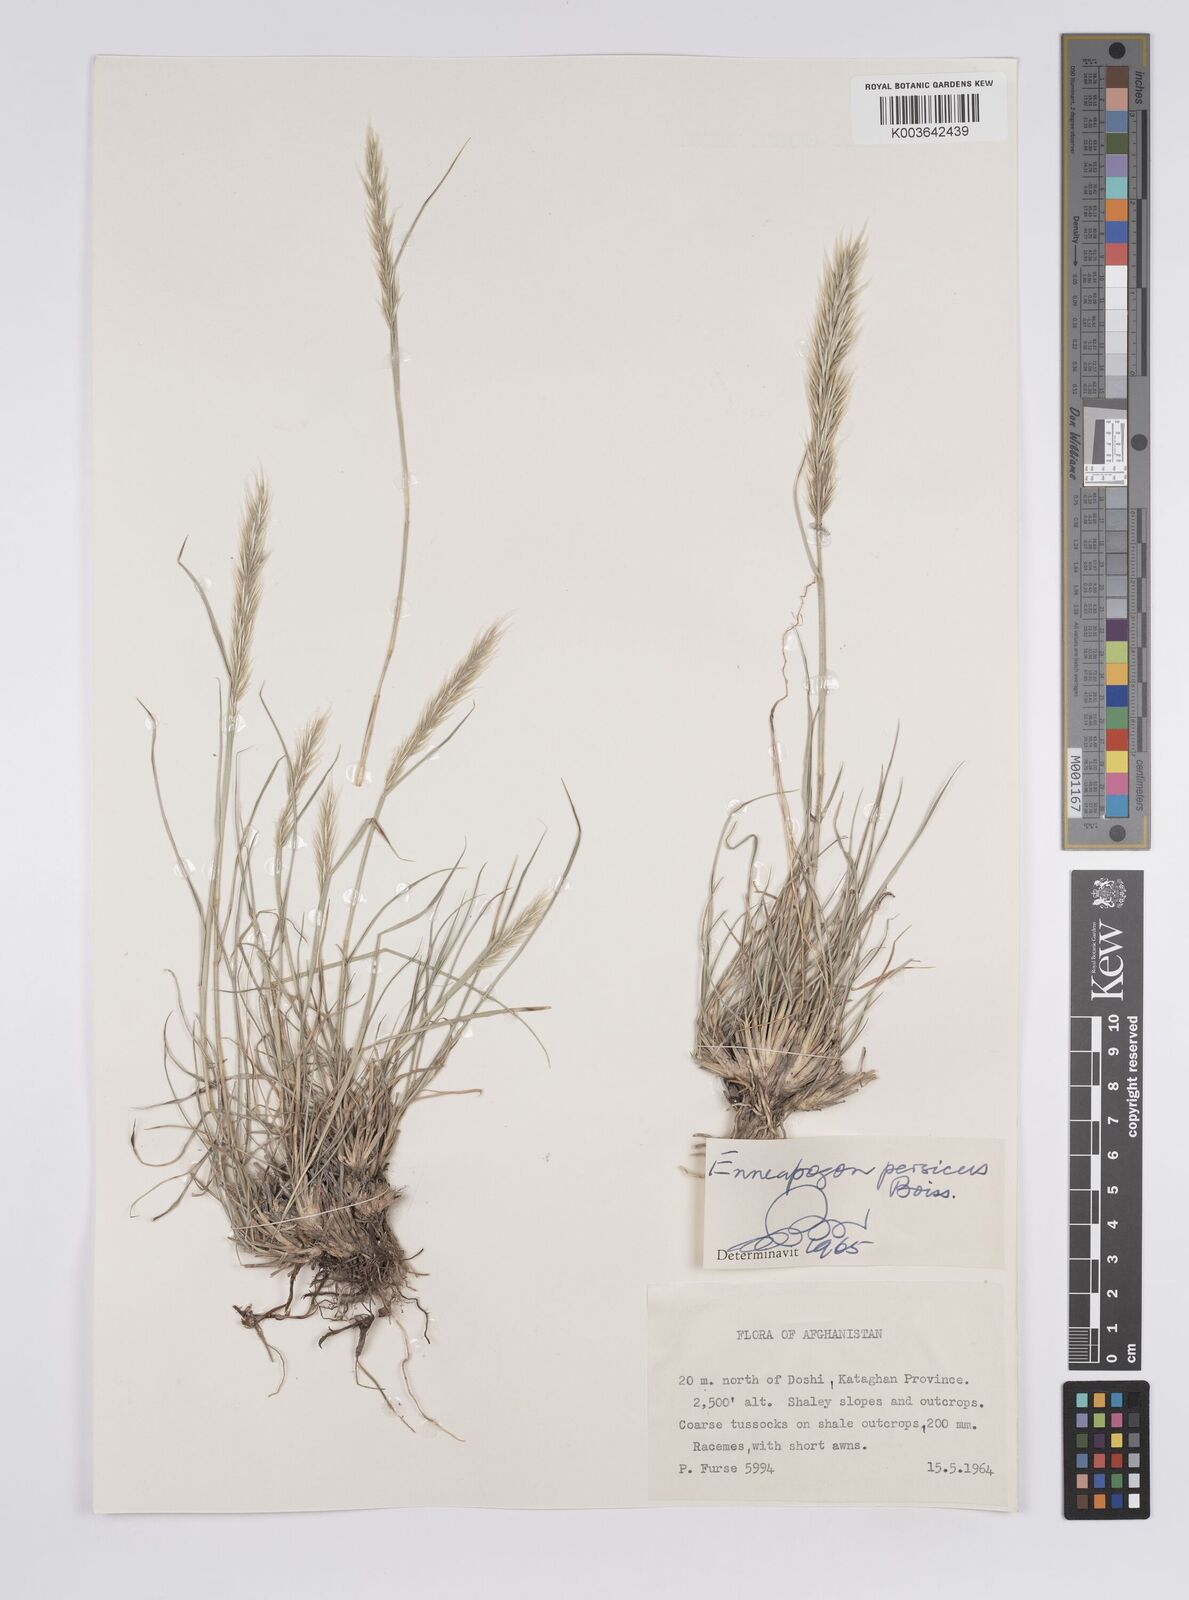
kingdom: Plantae
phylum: Tracheophyta
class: Liliopsida
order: Poales
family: Poaceae
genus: Enneapogon
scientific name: Enneapogon persicus
